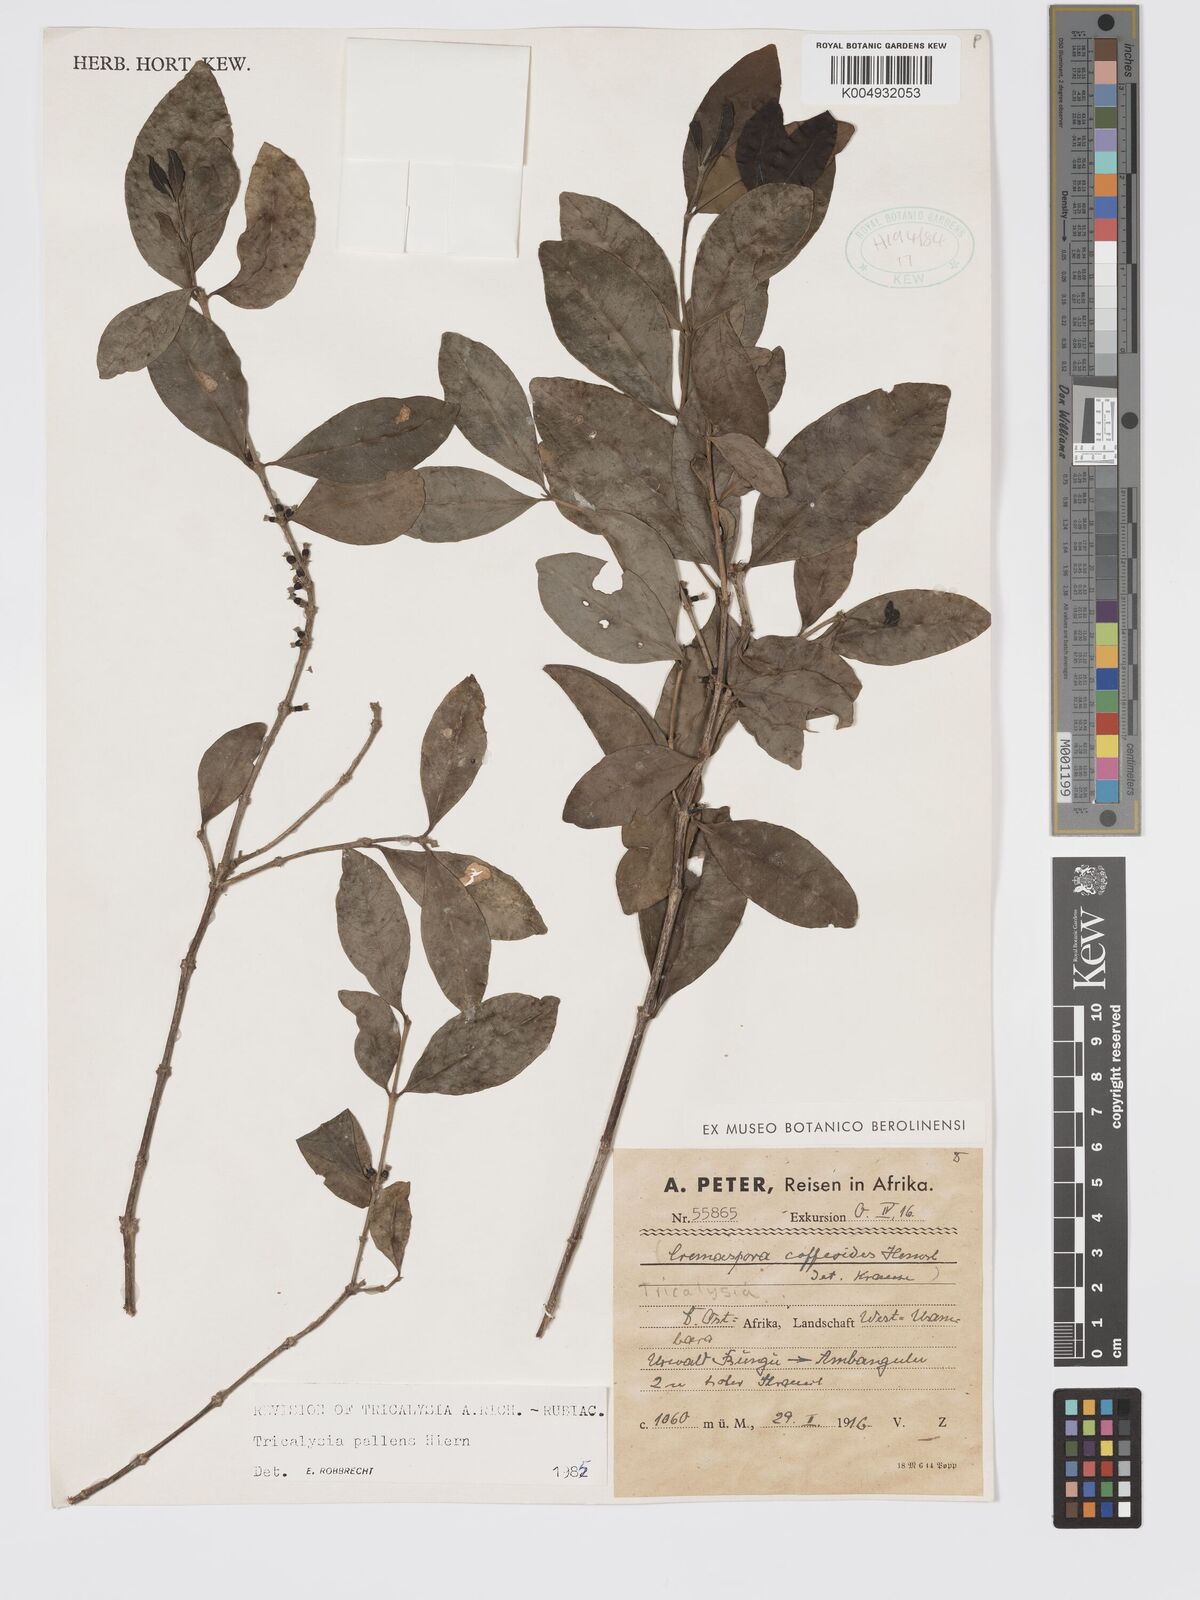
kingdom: Plantae
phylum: Tracheophyta
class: Magnoliopsida
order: Gentianales
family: Rubiaceae
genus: Tricalysia
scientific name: Tricalysia pallens
